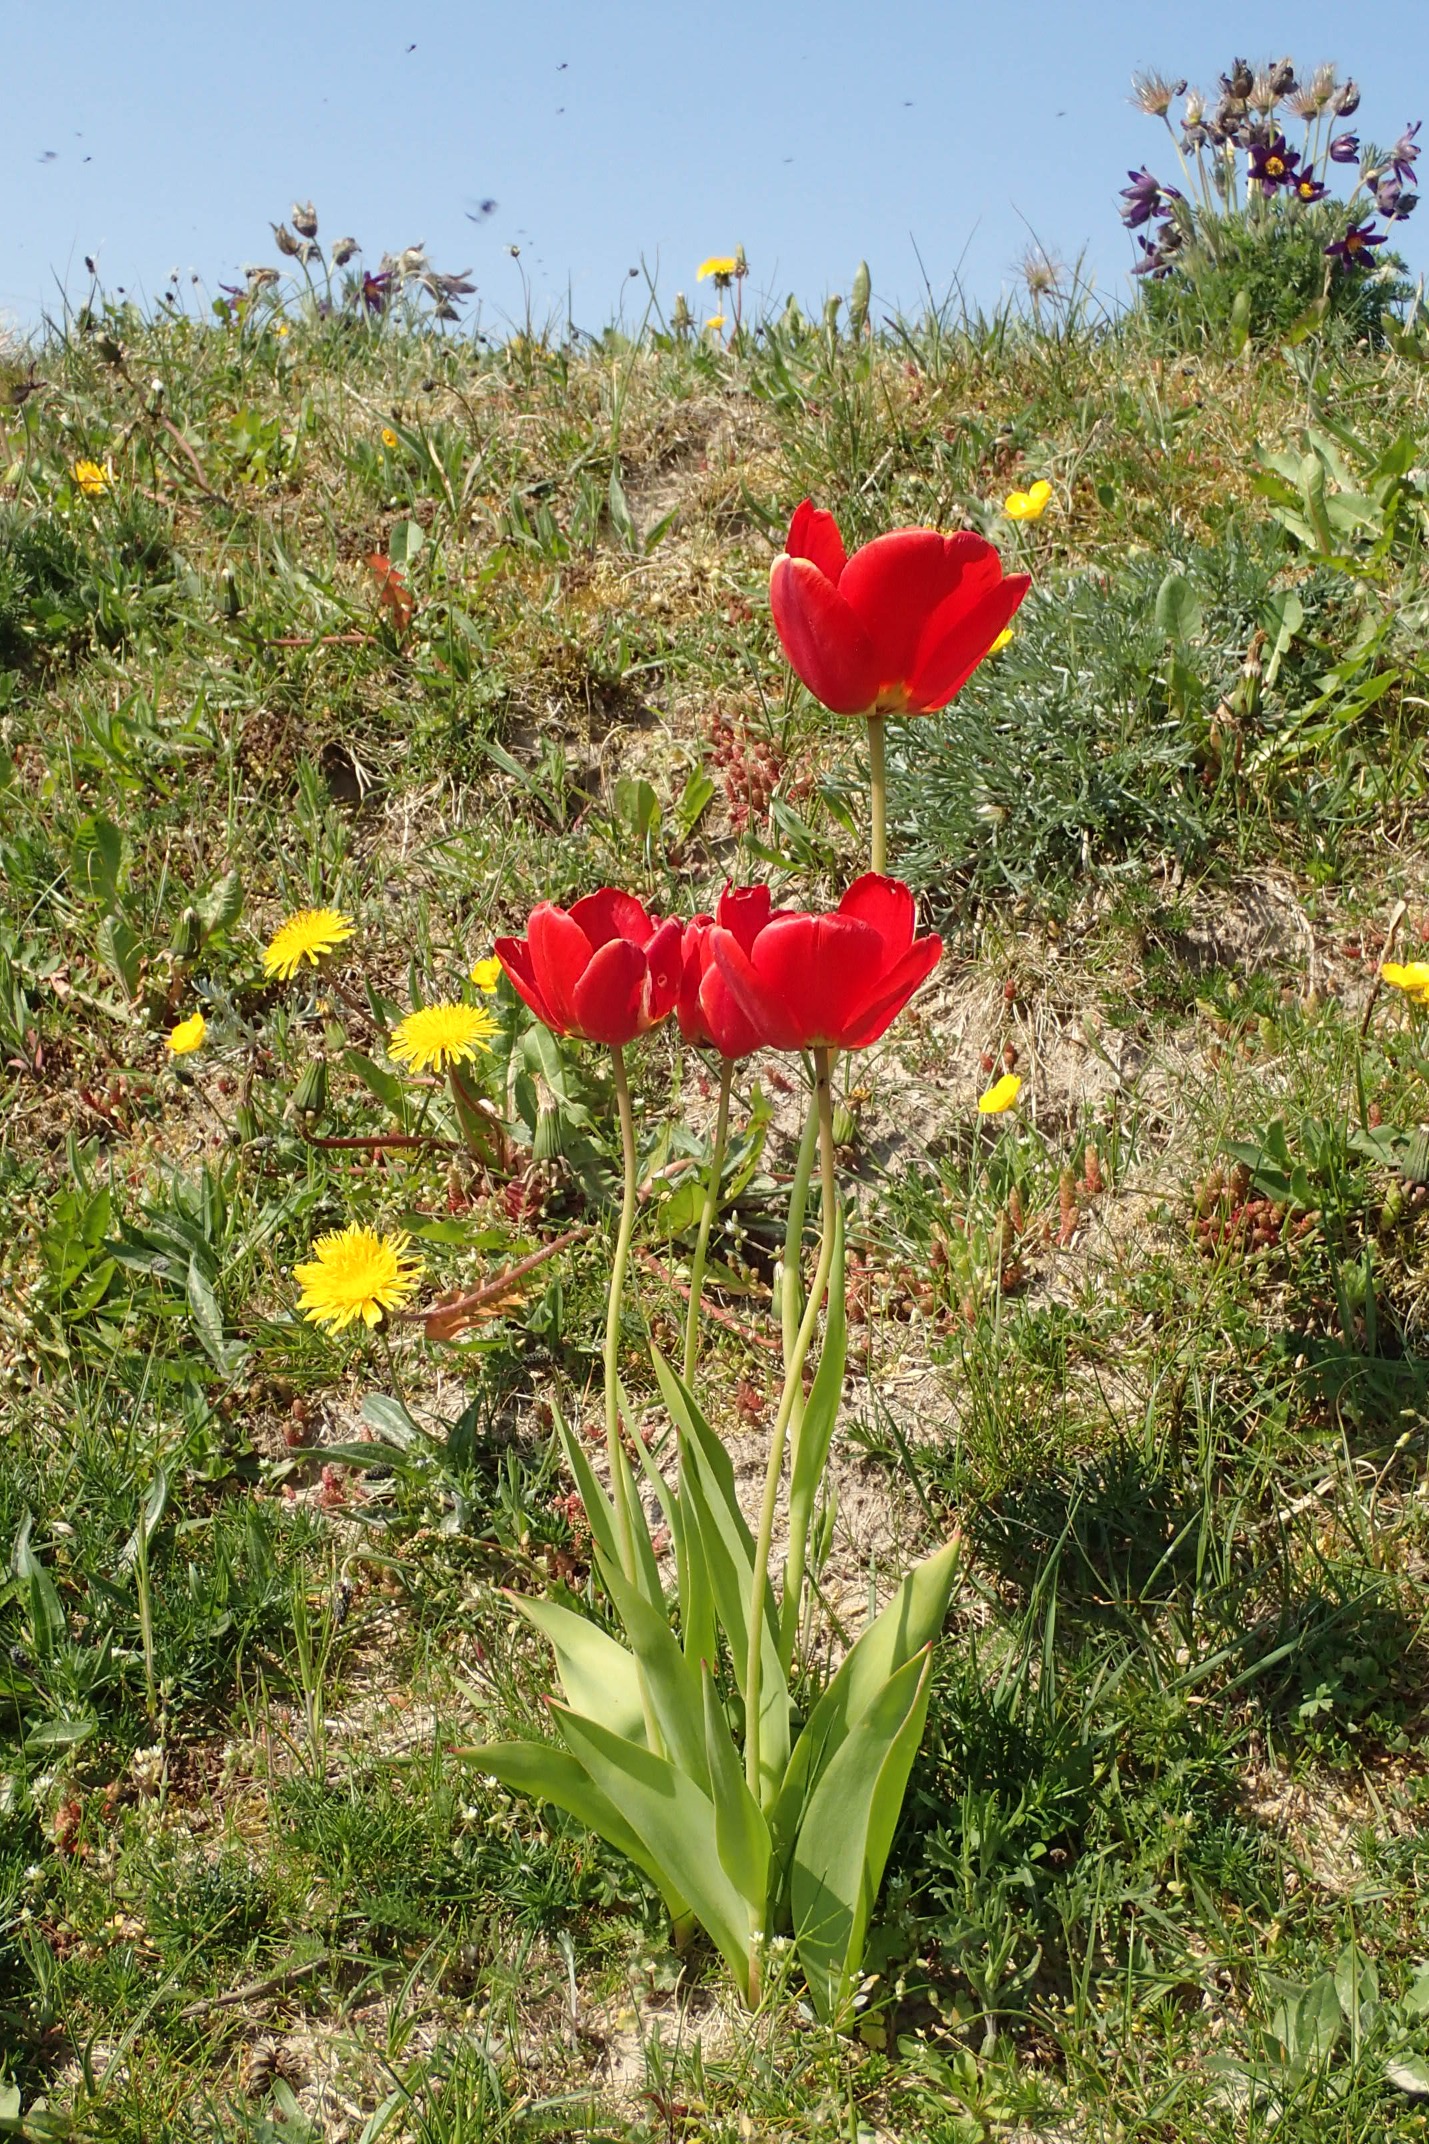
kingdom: Plantae
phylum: Tracheophyta
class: Liliopsida
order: Liliales
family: Liliaceae
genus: Tulipa
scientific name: Tulipa gesneriana
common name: Have-tulipan
